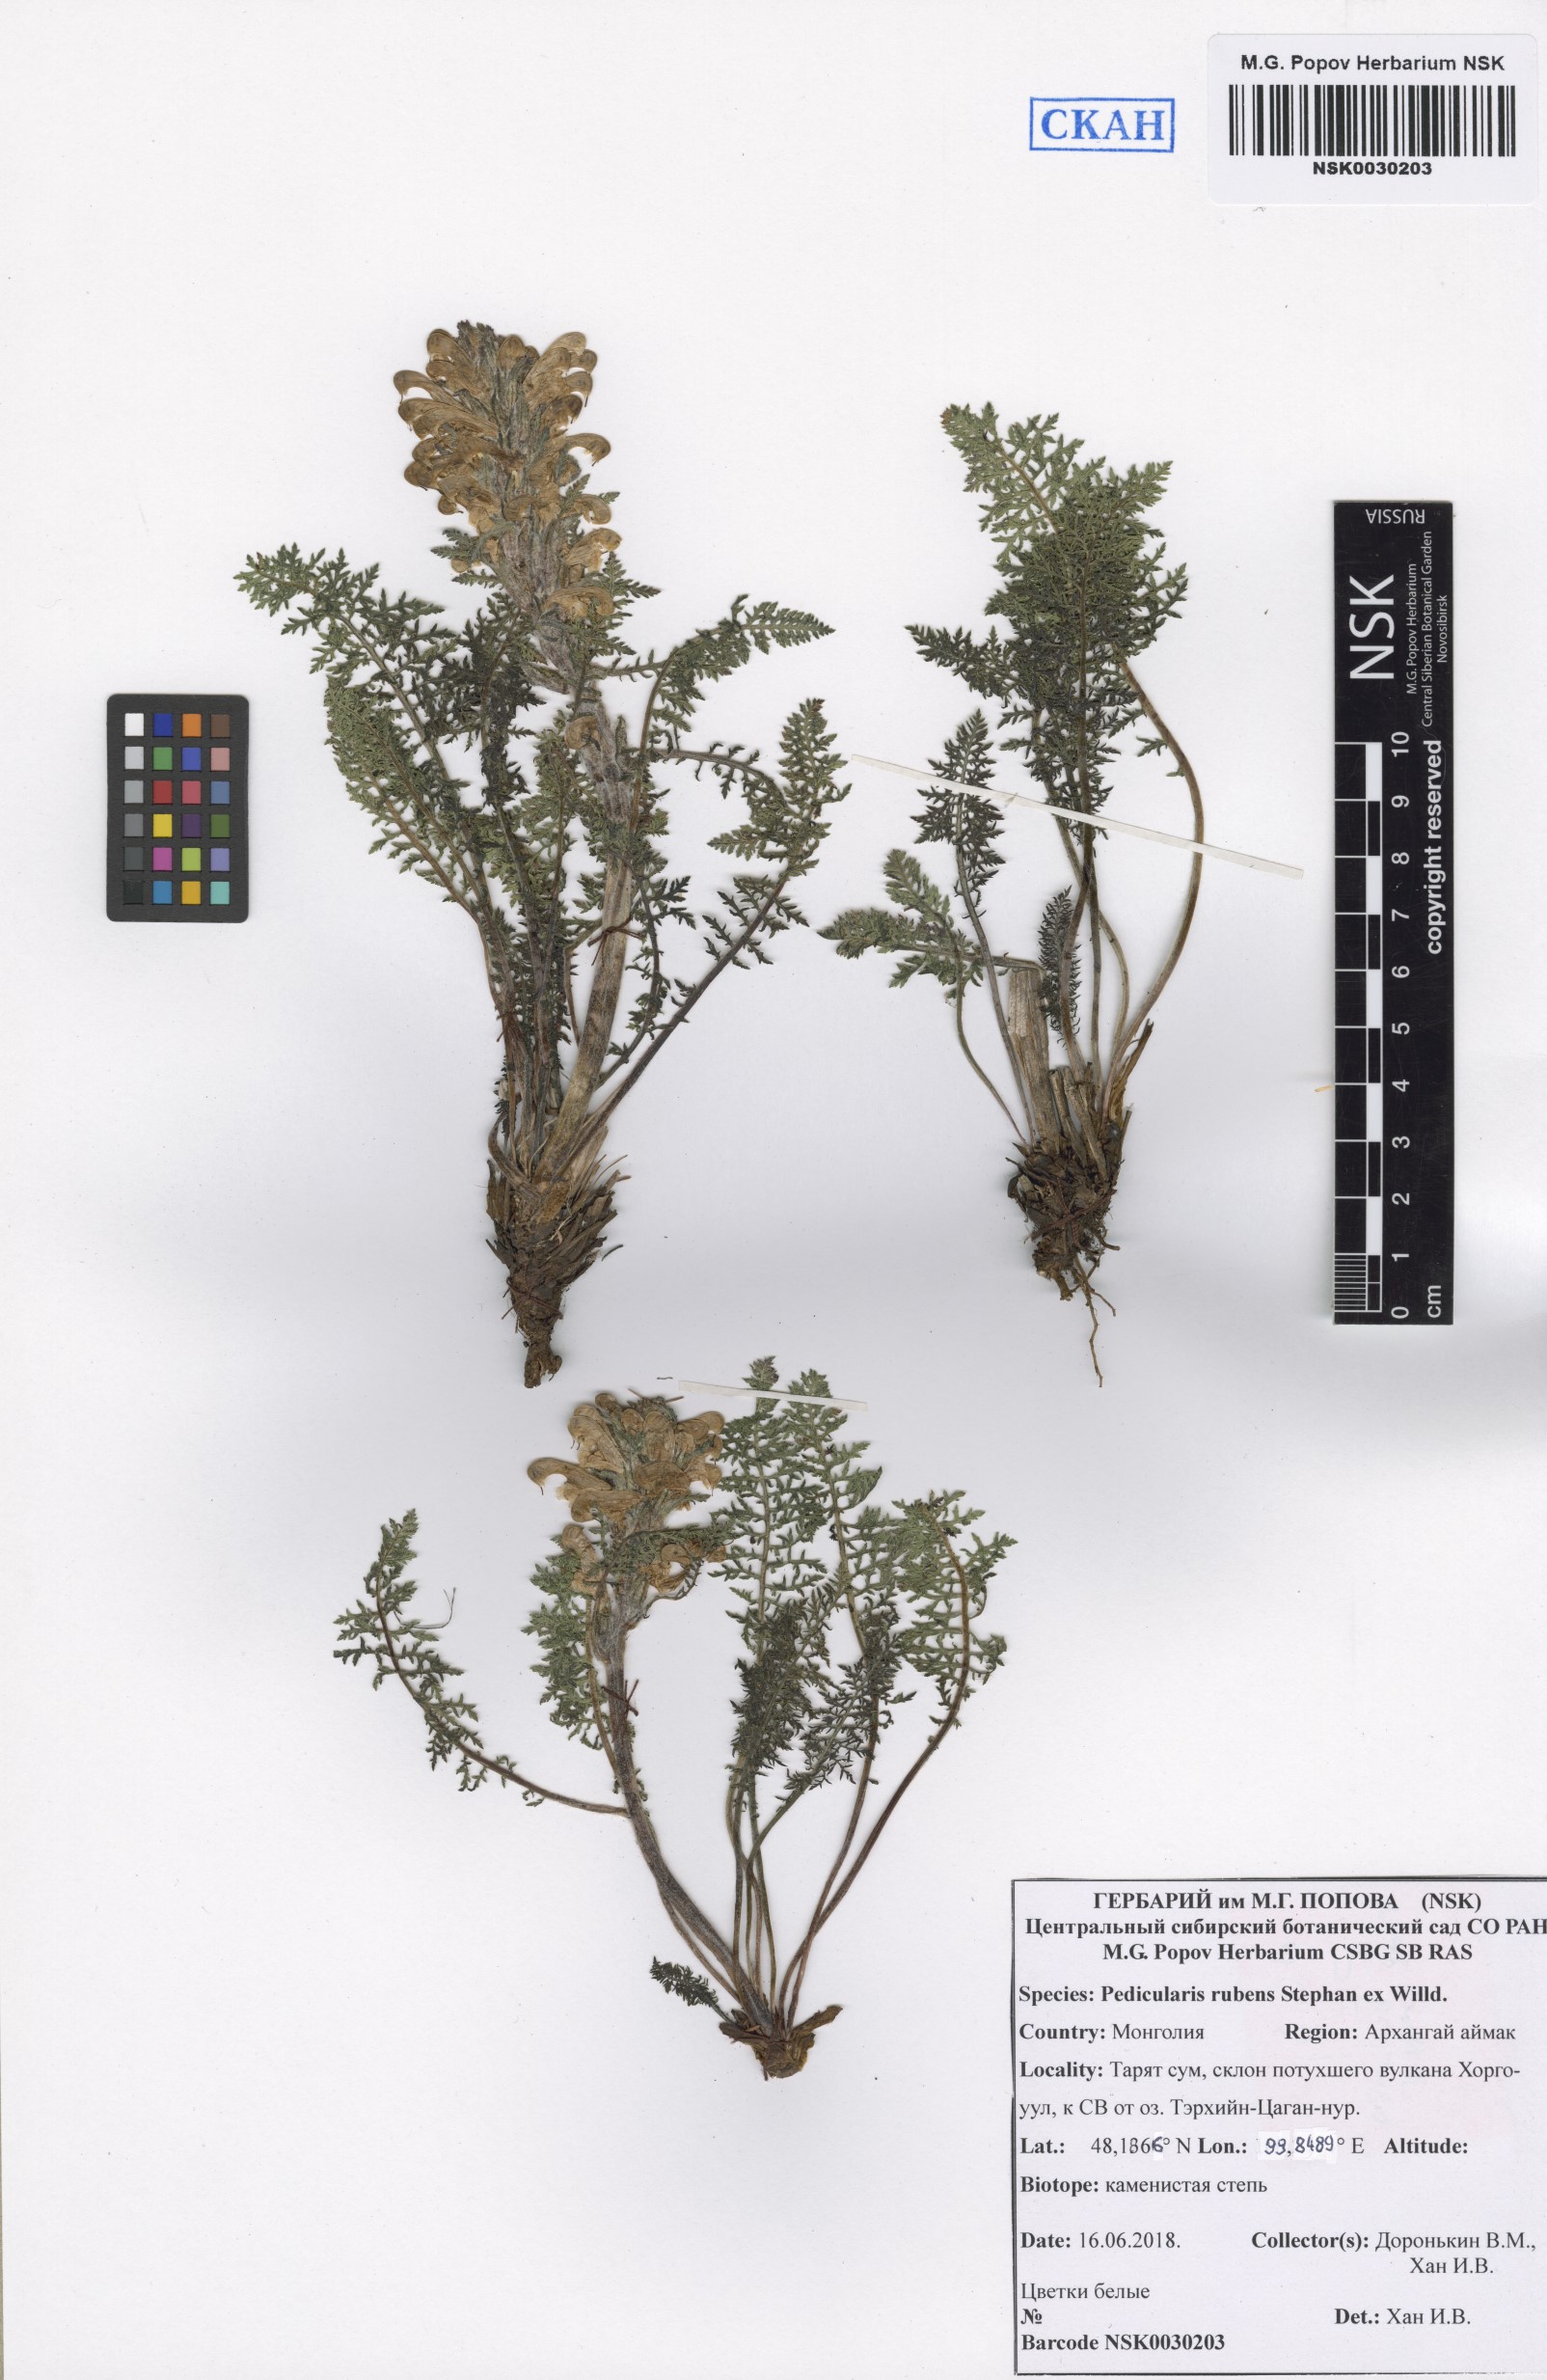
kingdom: Plantae
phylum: Tracheophyta
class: Magnoliopsida
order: Lamiales
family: Orobanchaceae
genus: Pedicularis
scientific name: Pedicularis rubens
